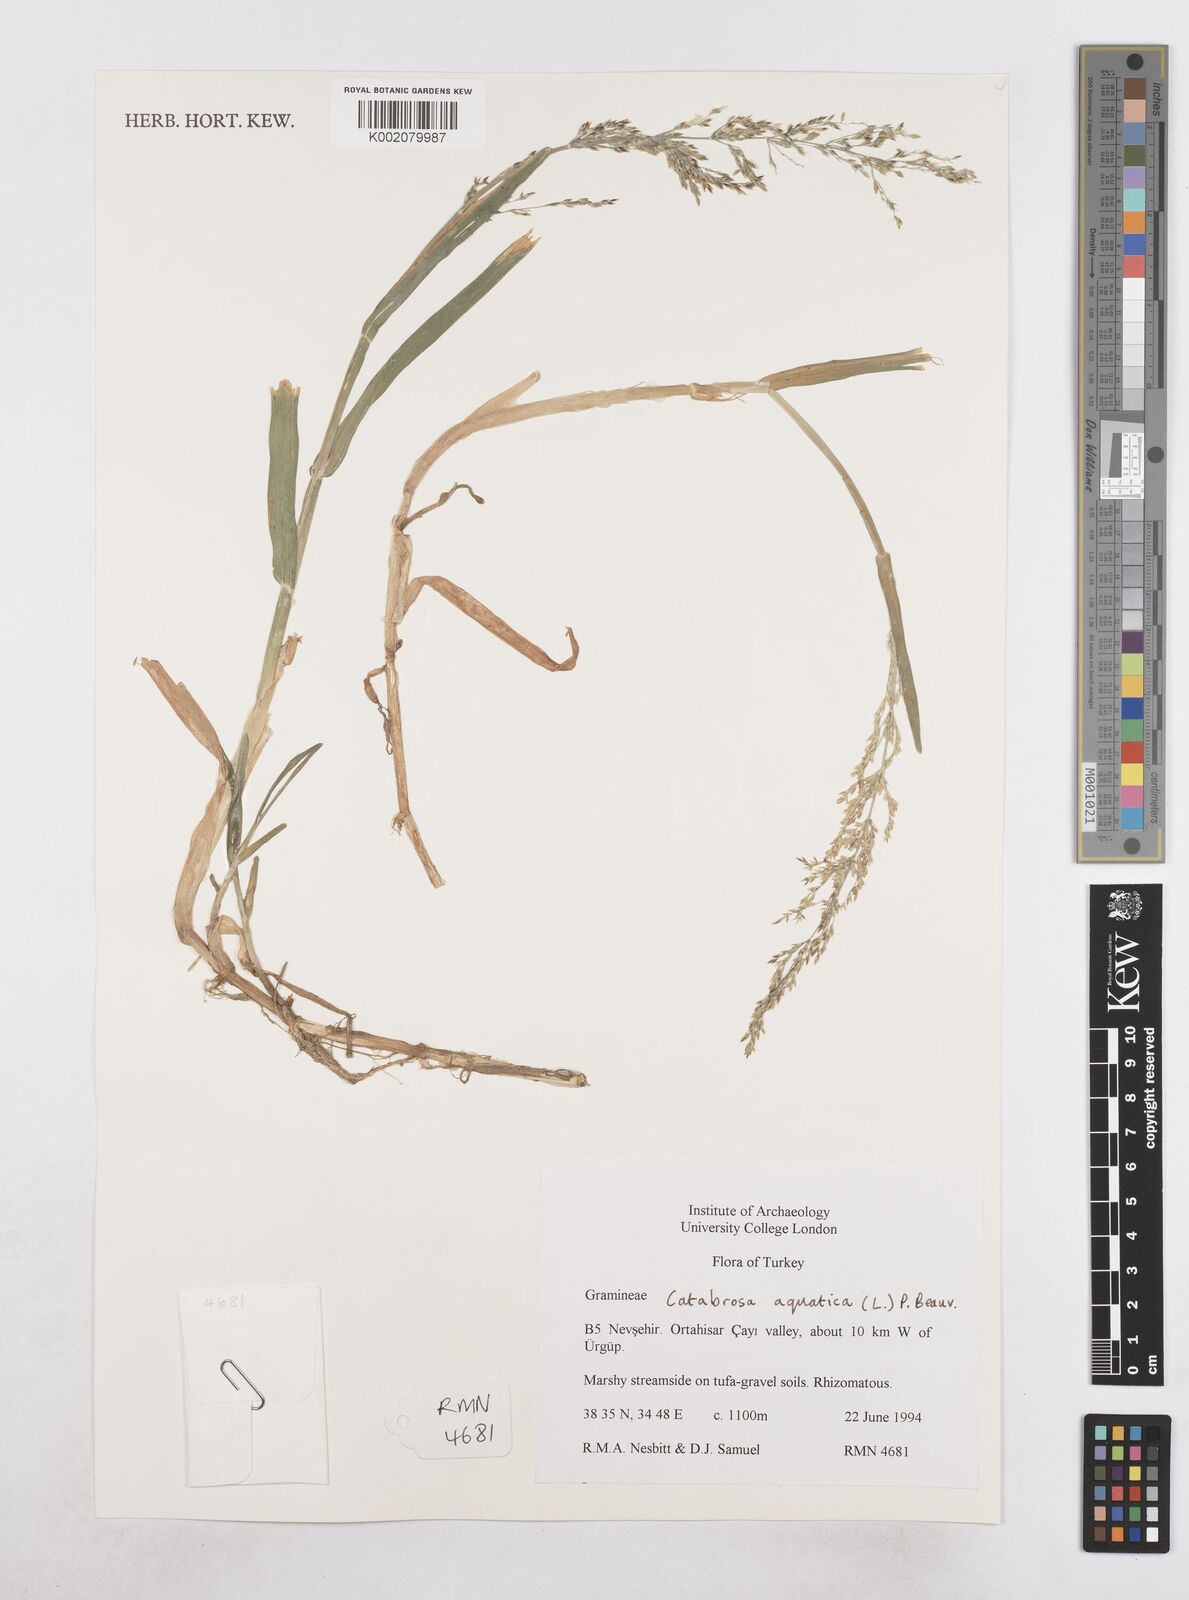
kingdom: Plantae
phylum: Tracheophyta
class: Liliopsida
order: Poales
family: Poaceae
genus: Catabrosa
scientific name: Catabrosa aquatica
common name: Whorl-grass
